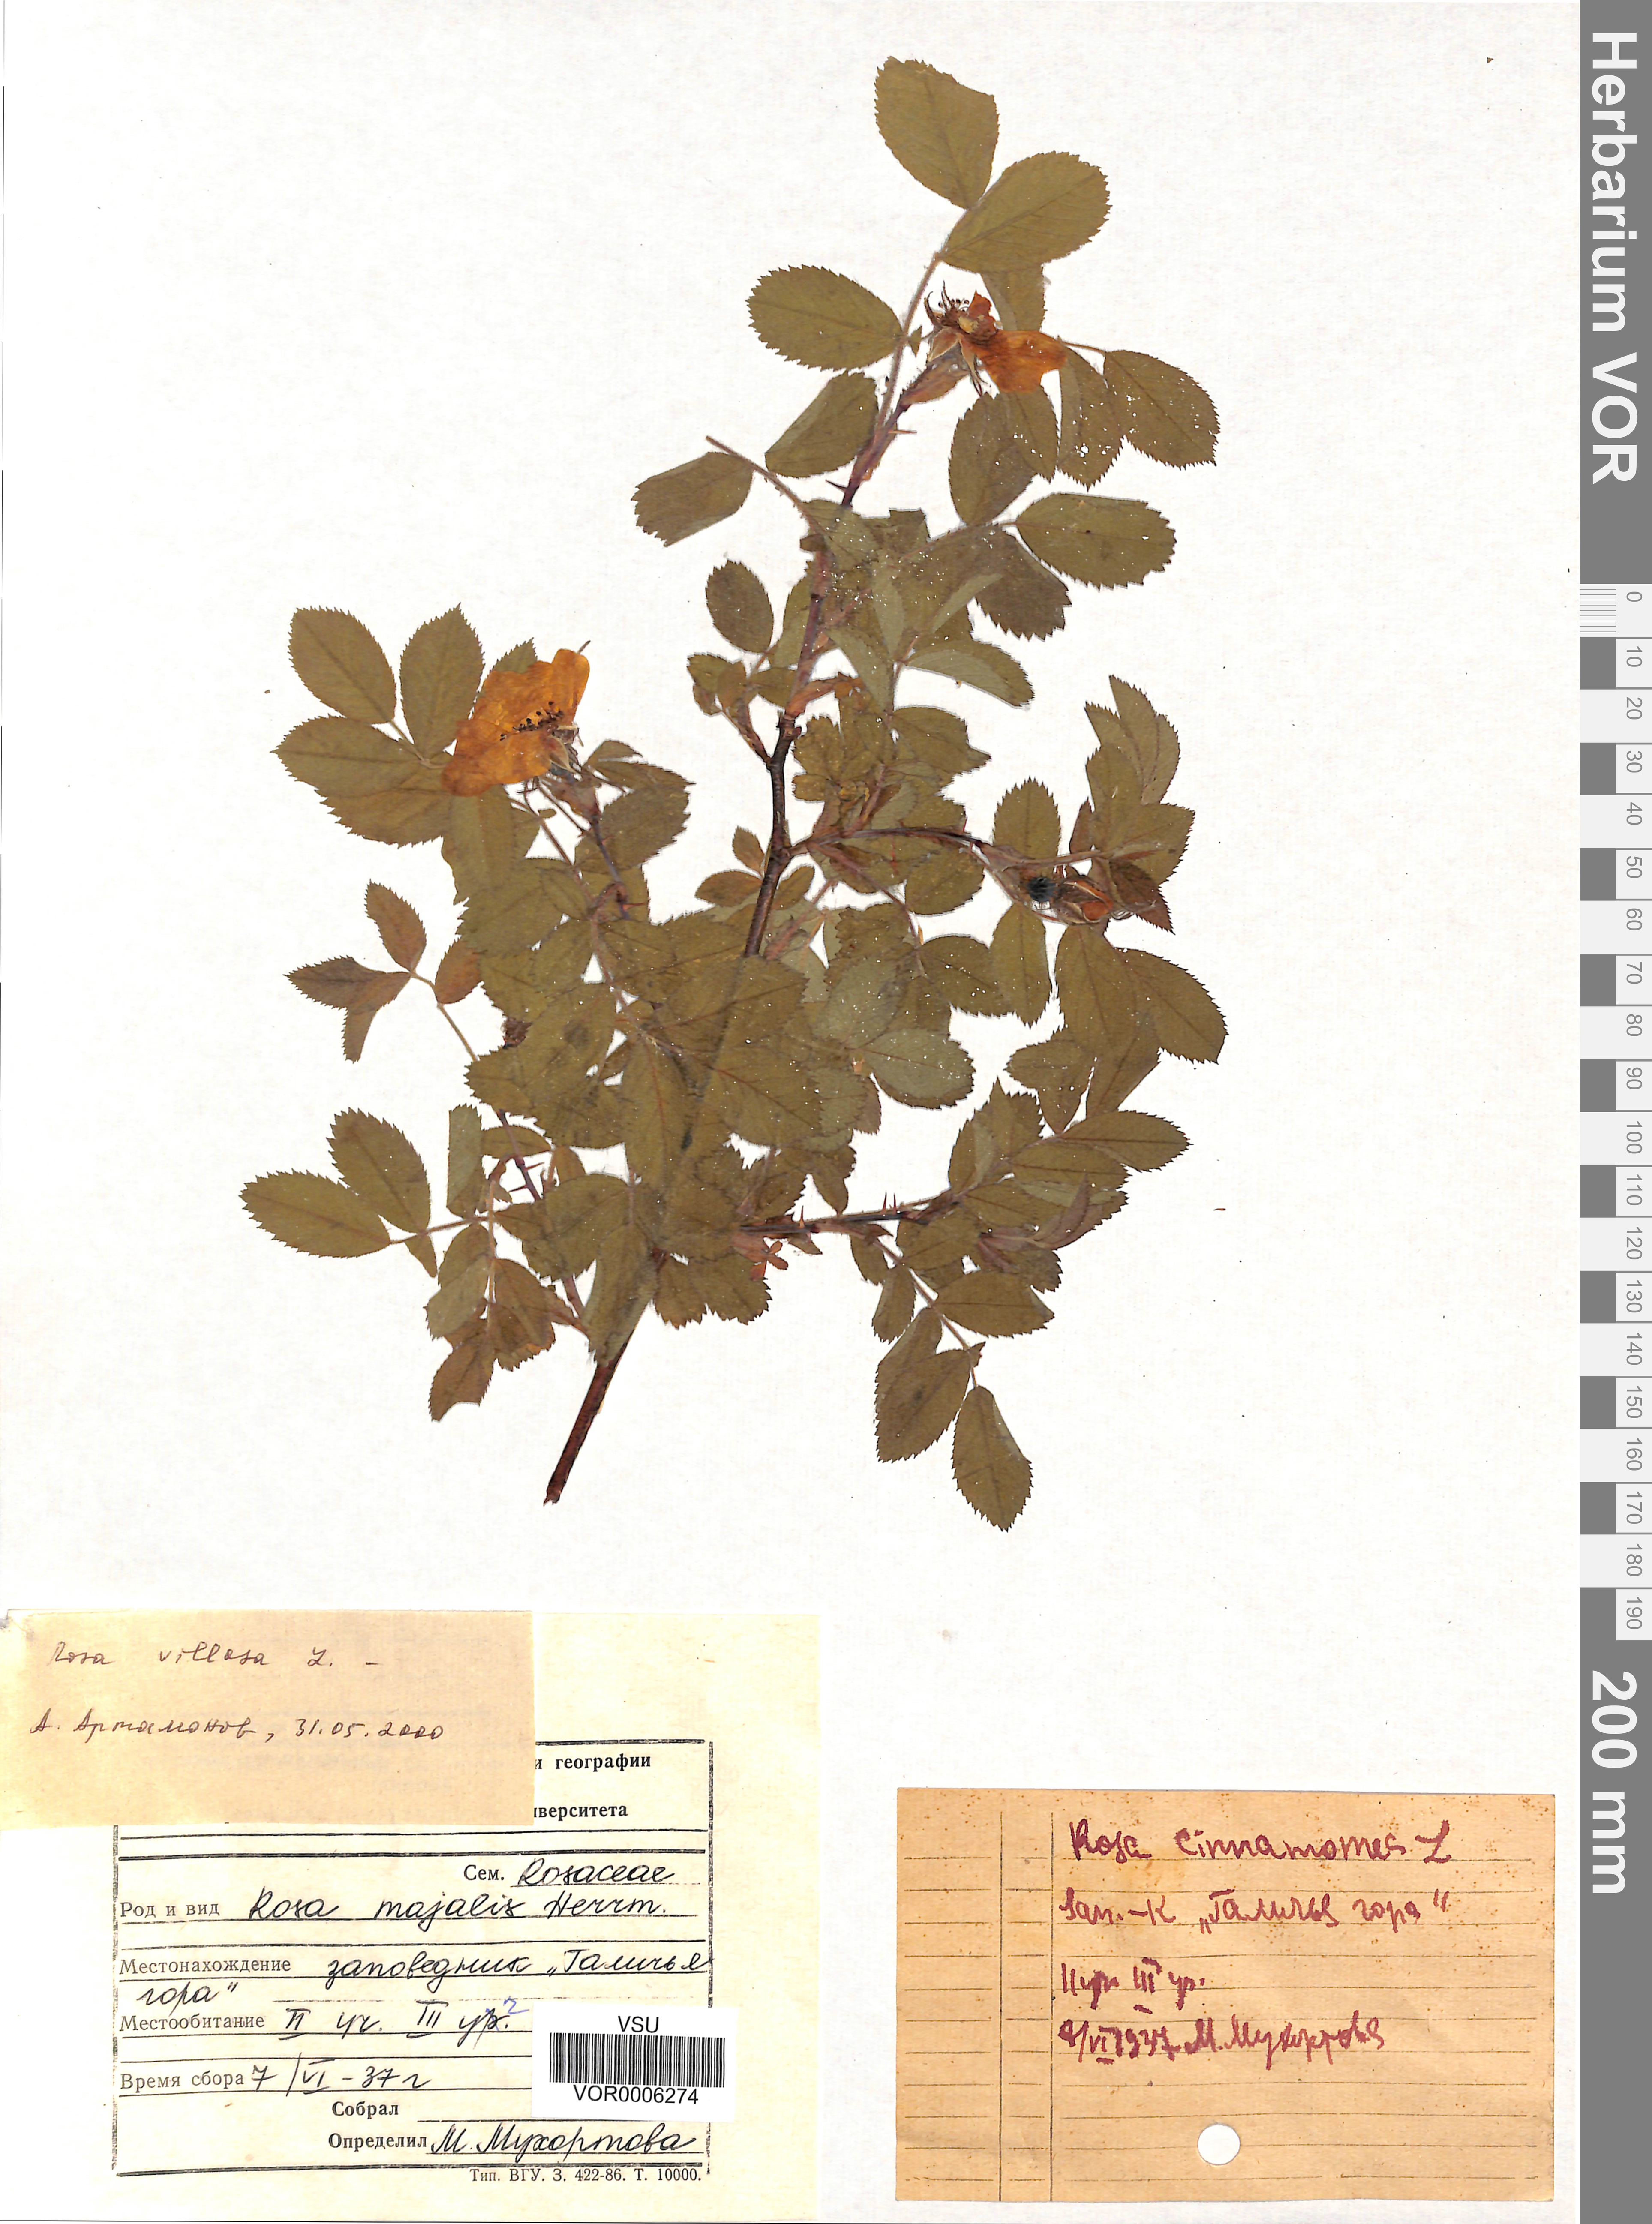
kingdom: Plantae
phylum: Tracheophyta
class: Magnoliopsida
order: Rosales
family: Rosaceae
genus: Rosa
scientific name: Rosa villosa
